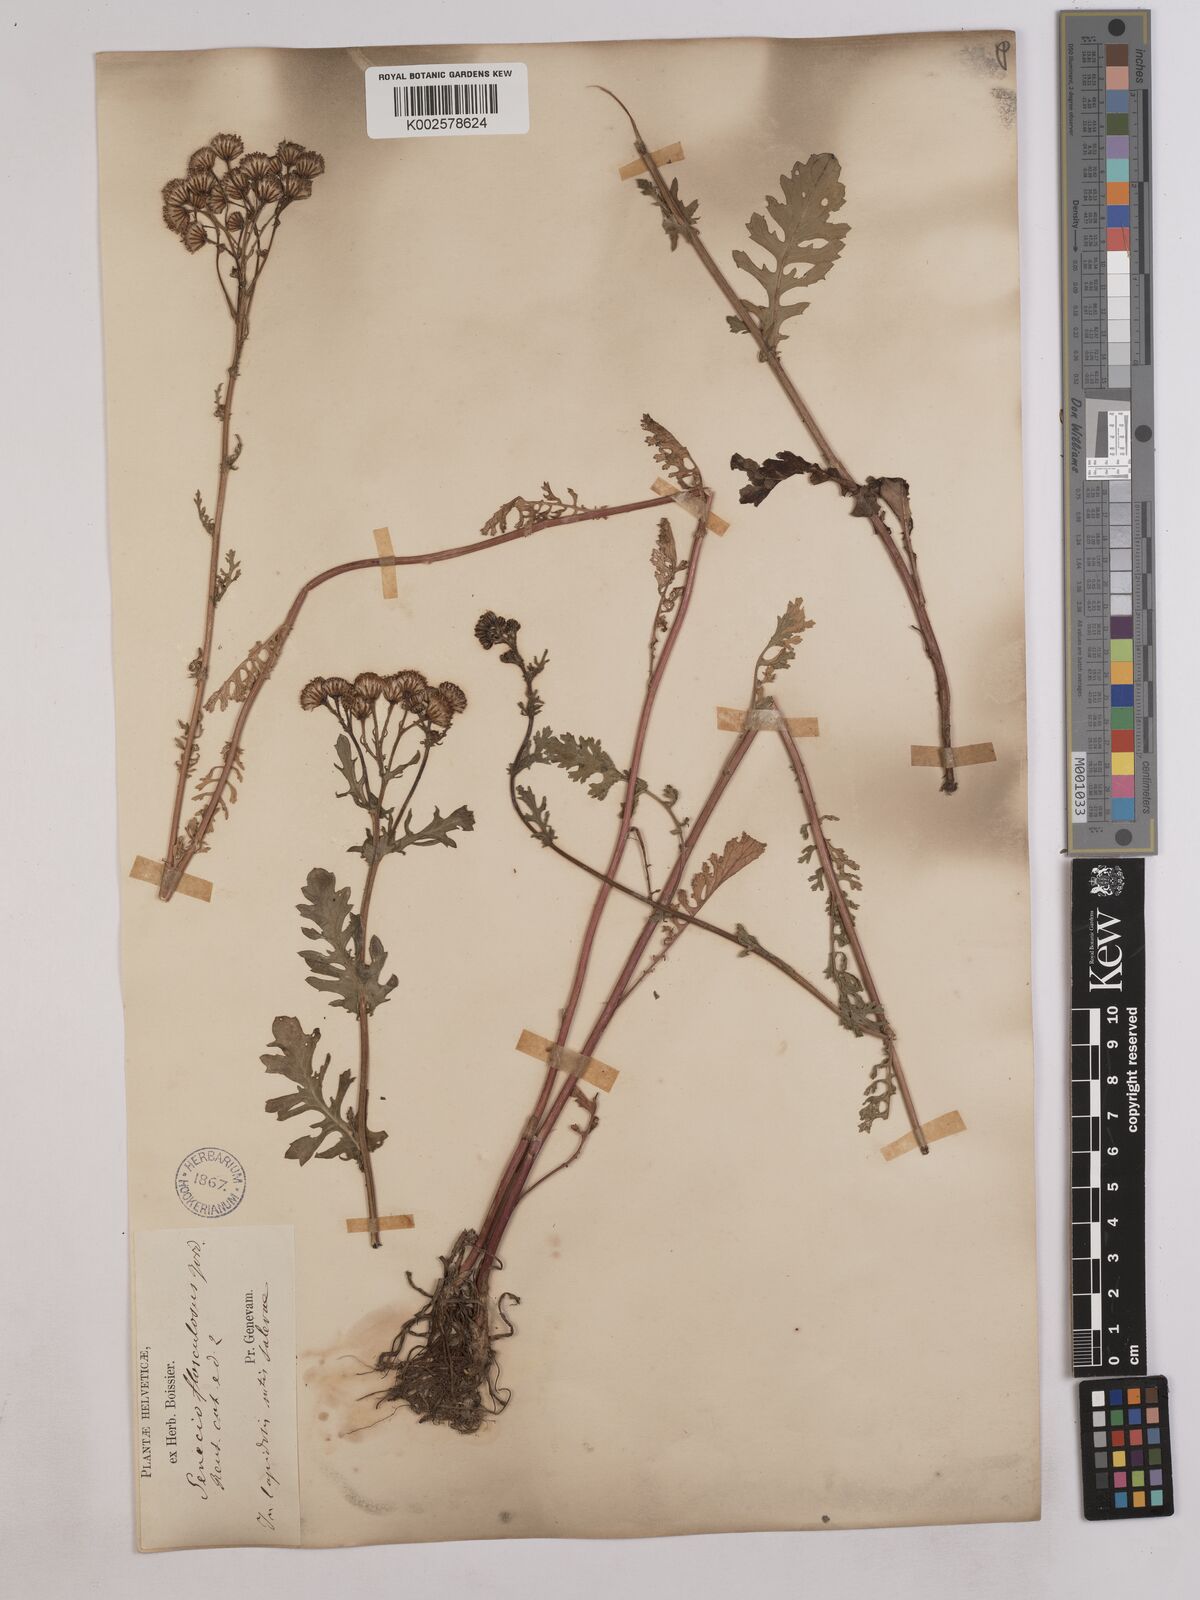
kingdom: Plantae
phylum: Tracheophyta
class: Magnoliopsida
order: Asterales
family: Asteraceae
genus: Jacobaea
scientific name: Jacobaea vulgaris
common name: Stinking willie
